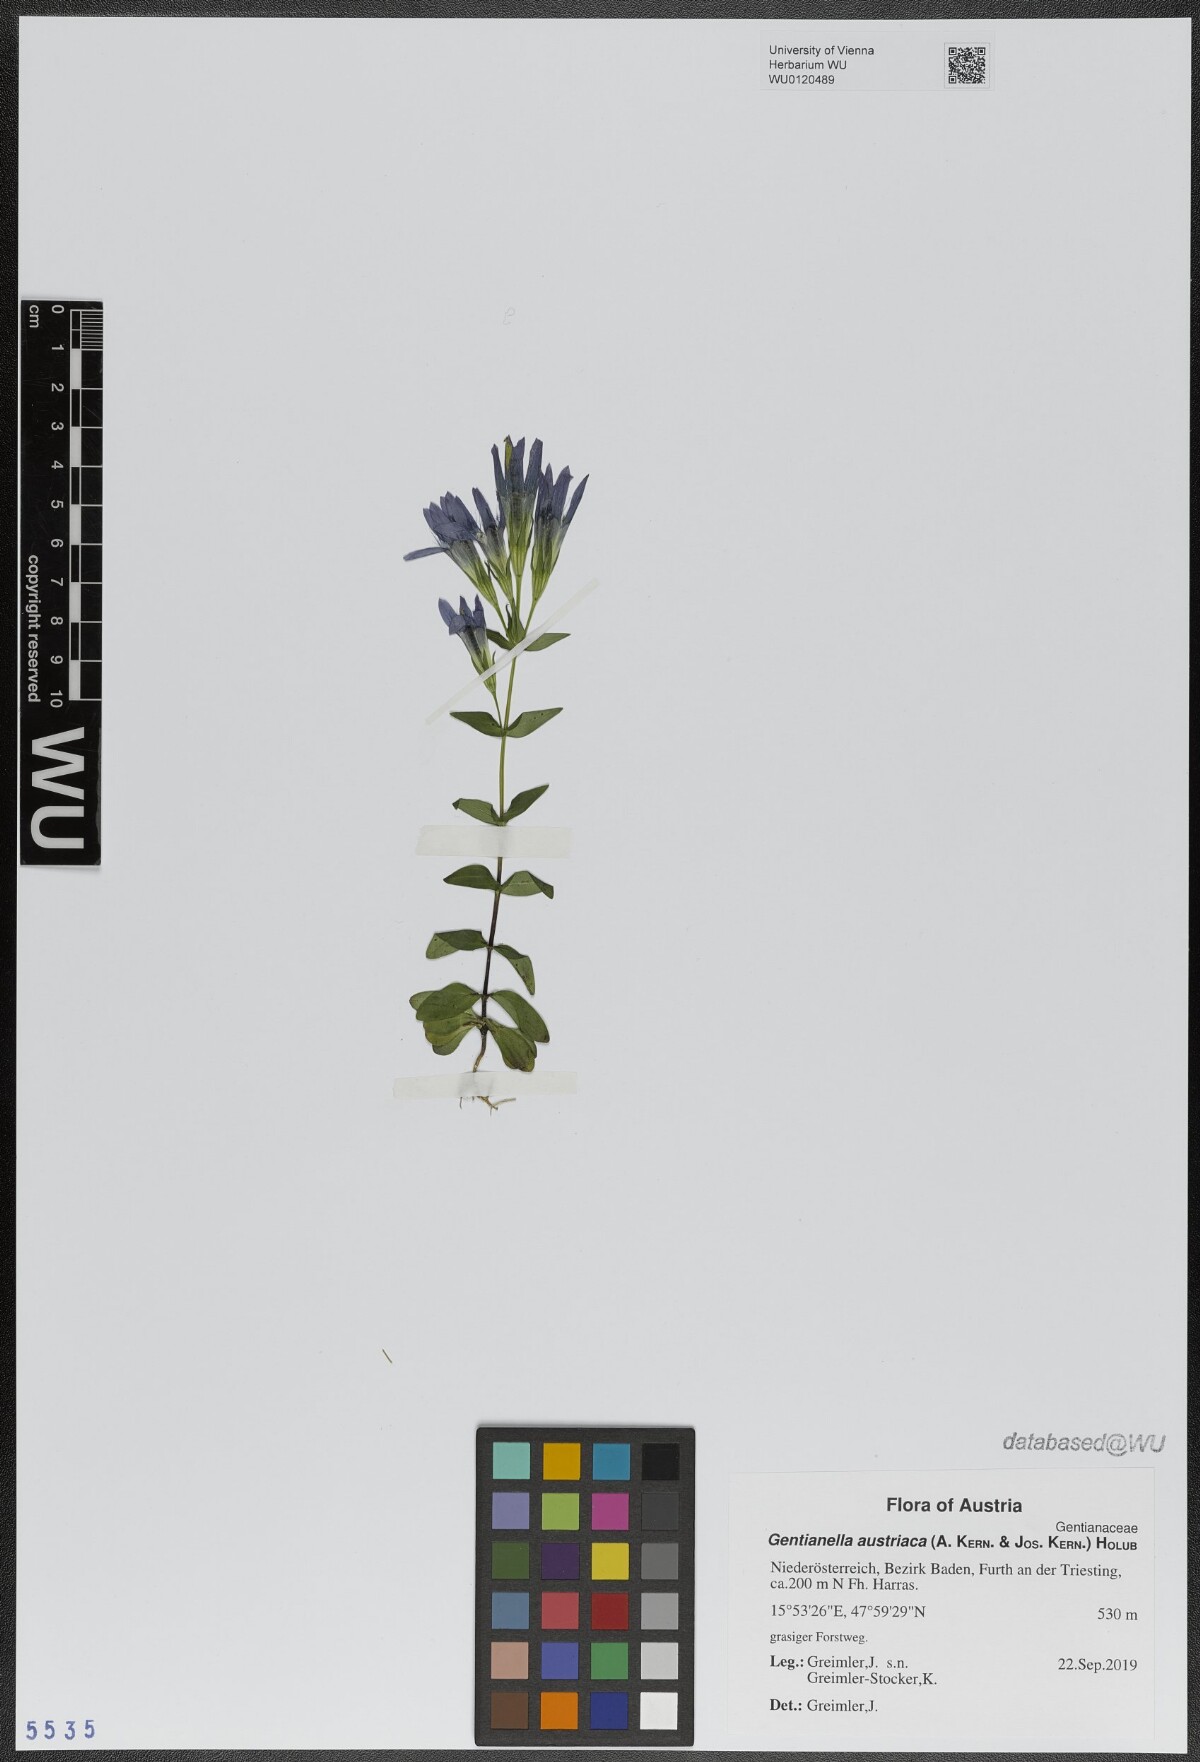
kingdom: Plantae
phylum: Tracheophyta
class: Magnoliopsida
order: Gentianales
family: Gentianaceae
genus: Gentianella
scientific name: Gentianella austriaca
